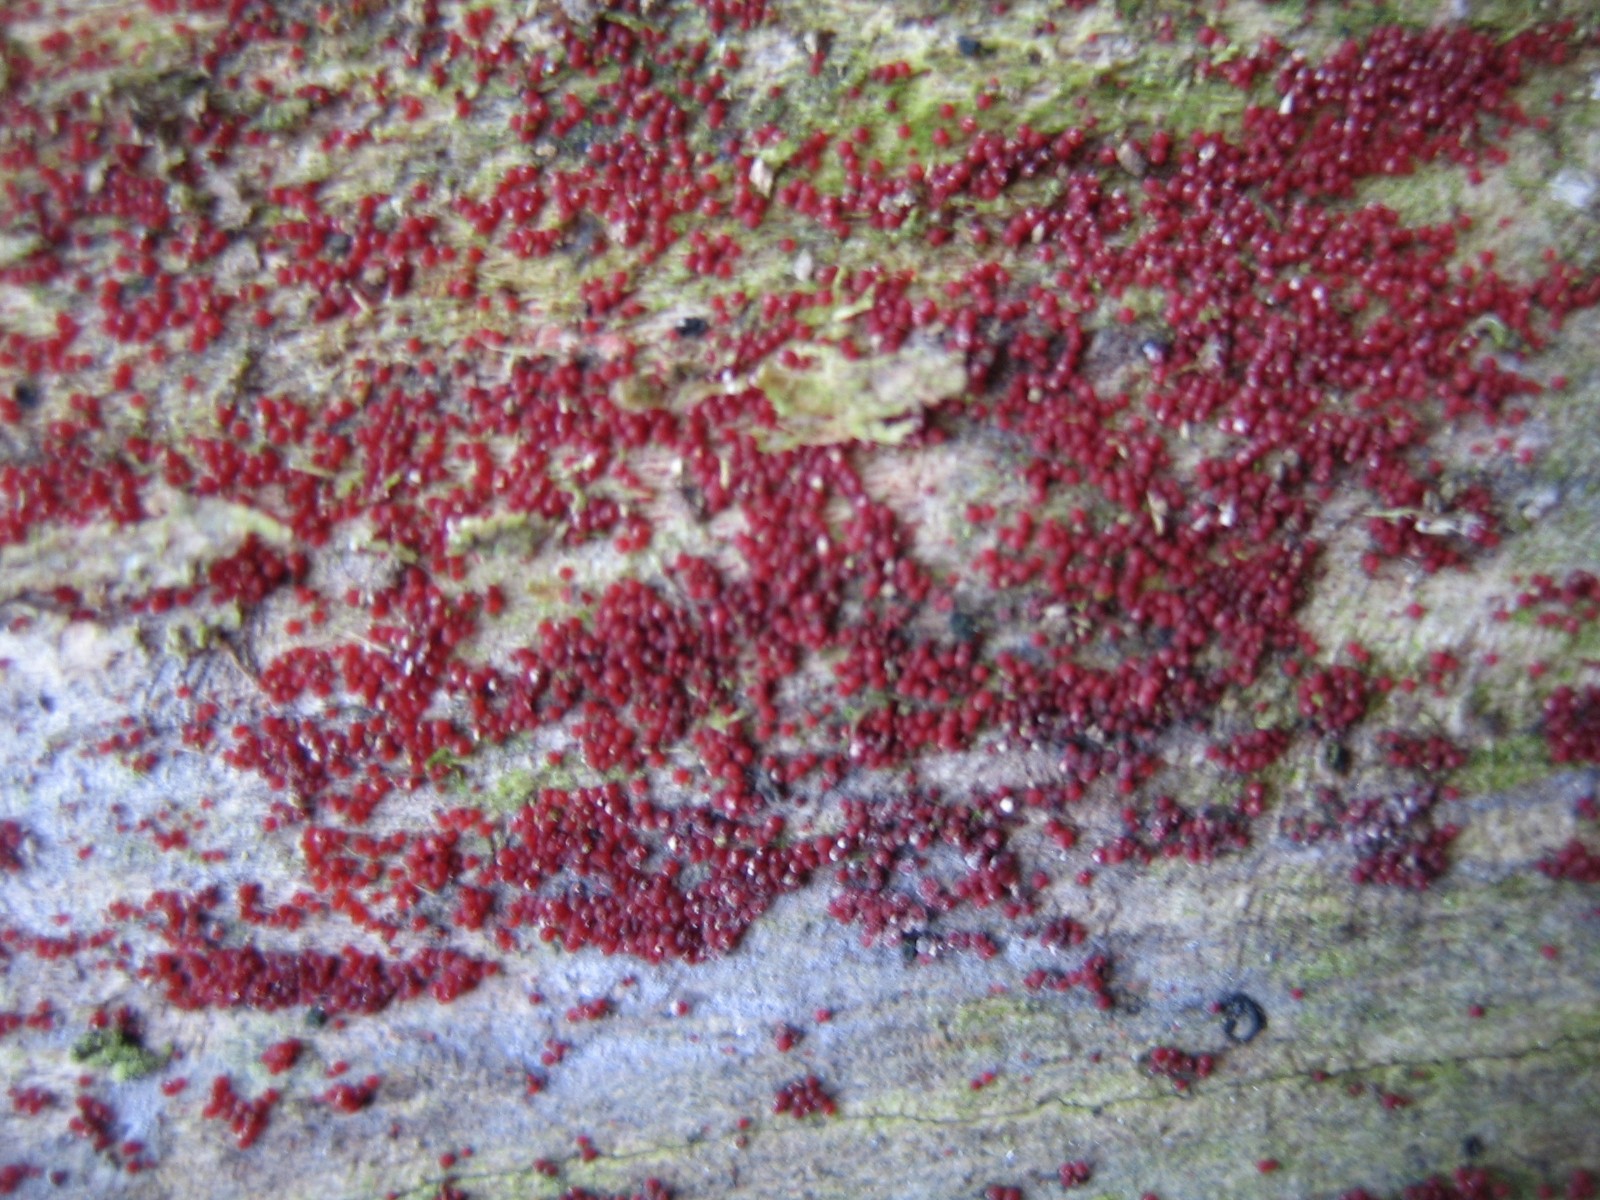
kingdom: Fungi
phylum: Ascomycota
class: Sordariomycetes
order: Hypocreales
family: Nectriaceae
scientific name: Nectriaceae
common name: cinnobersvampfamilien
